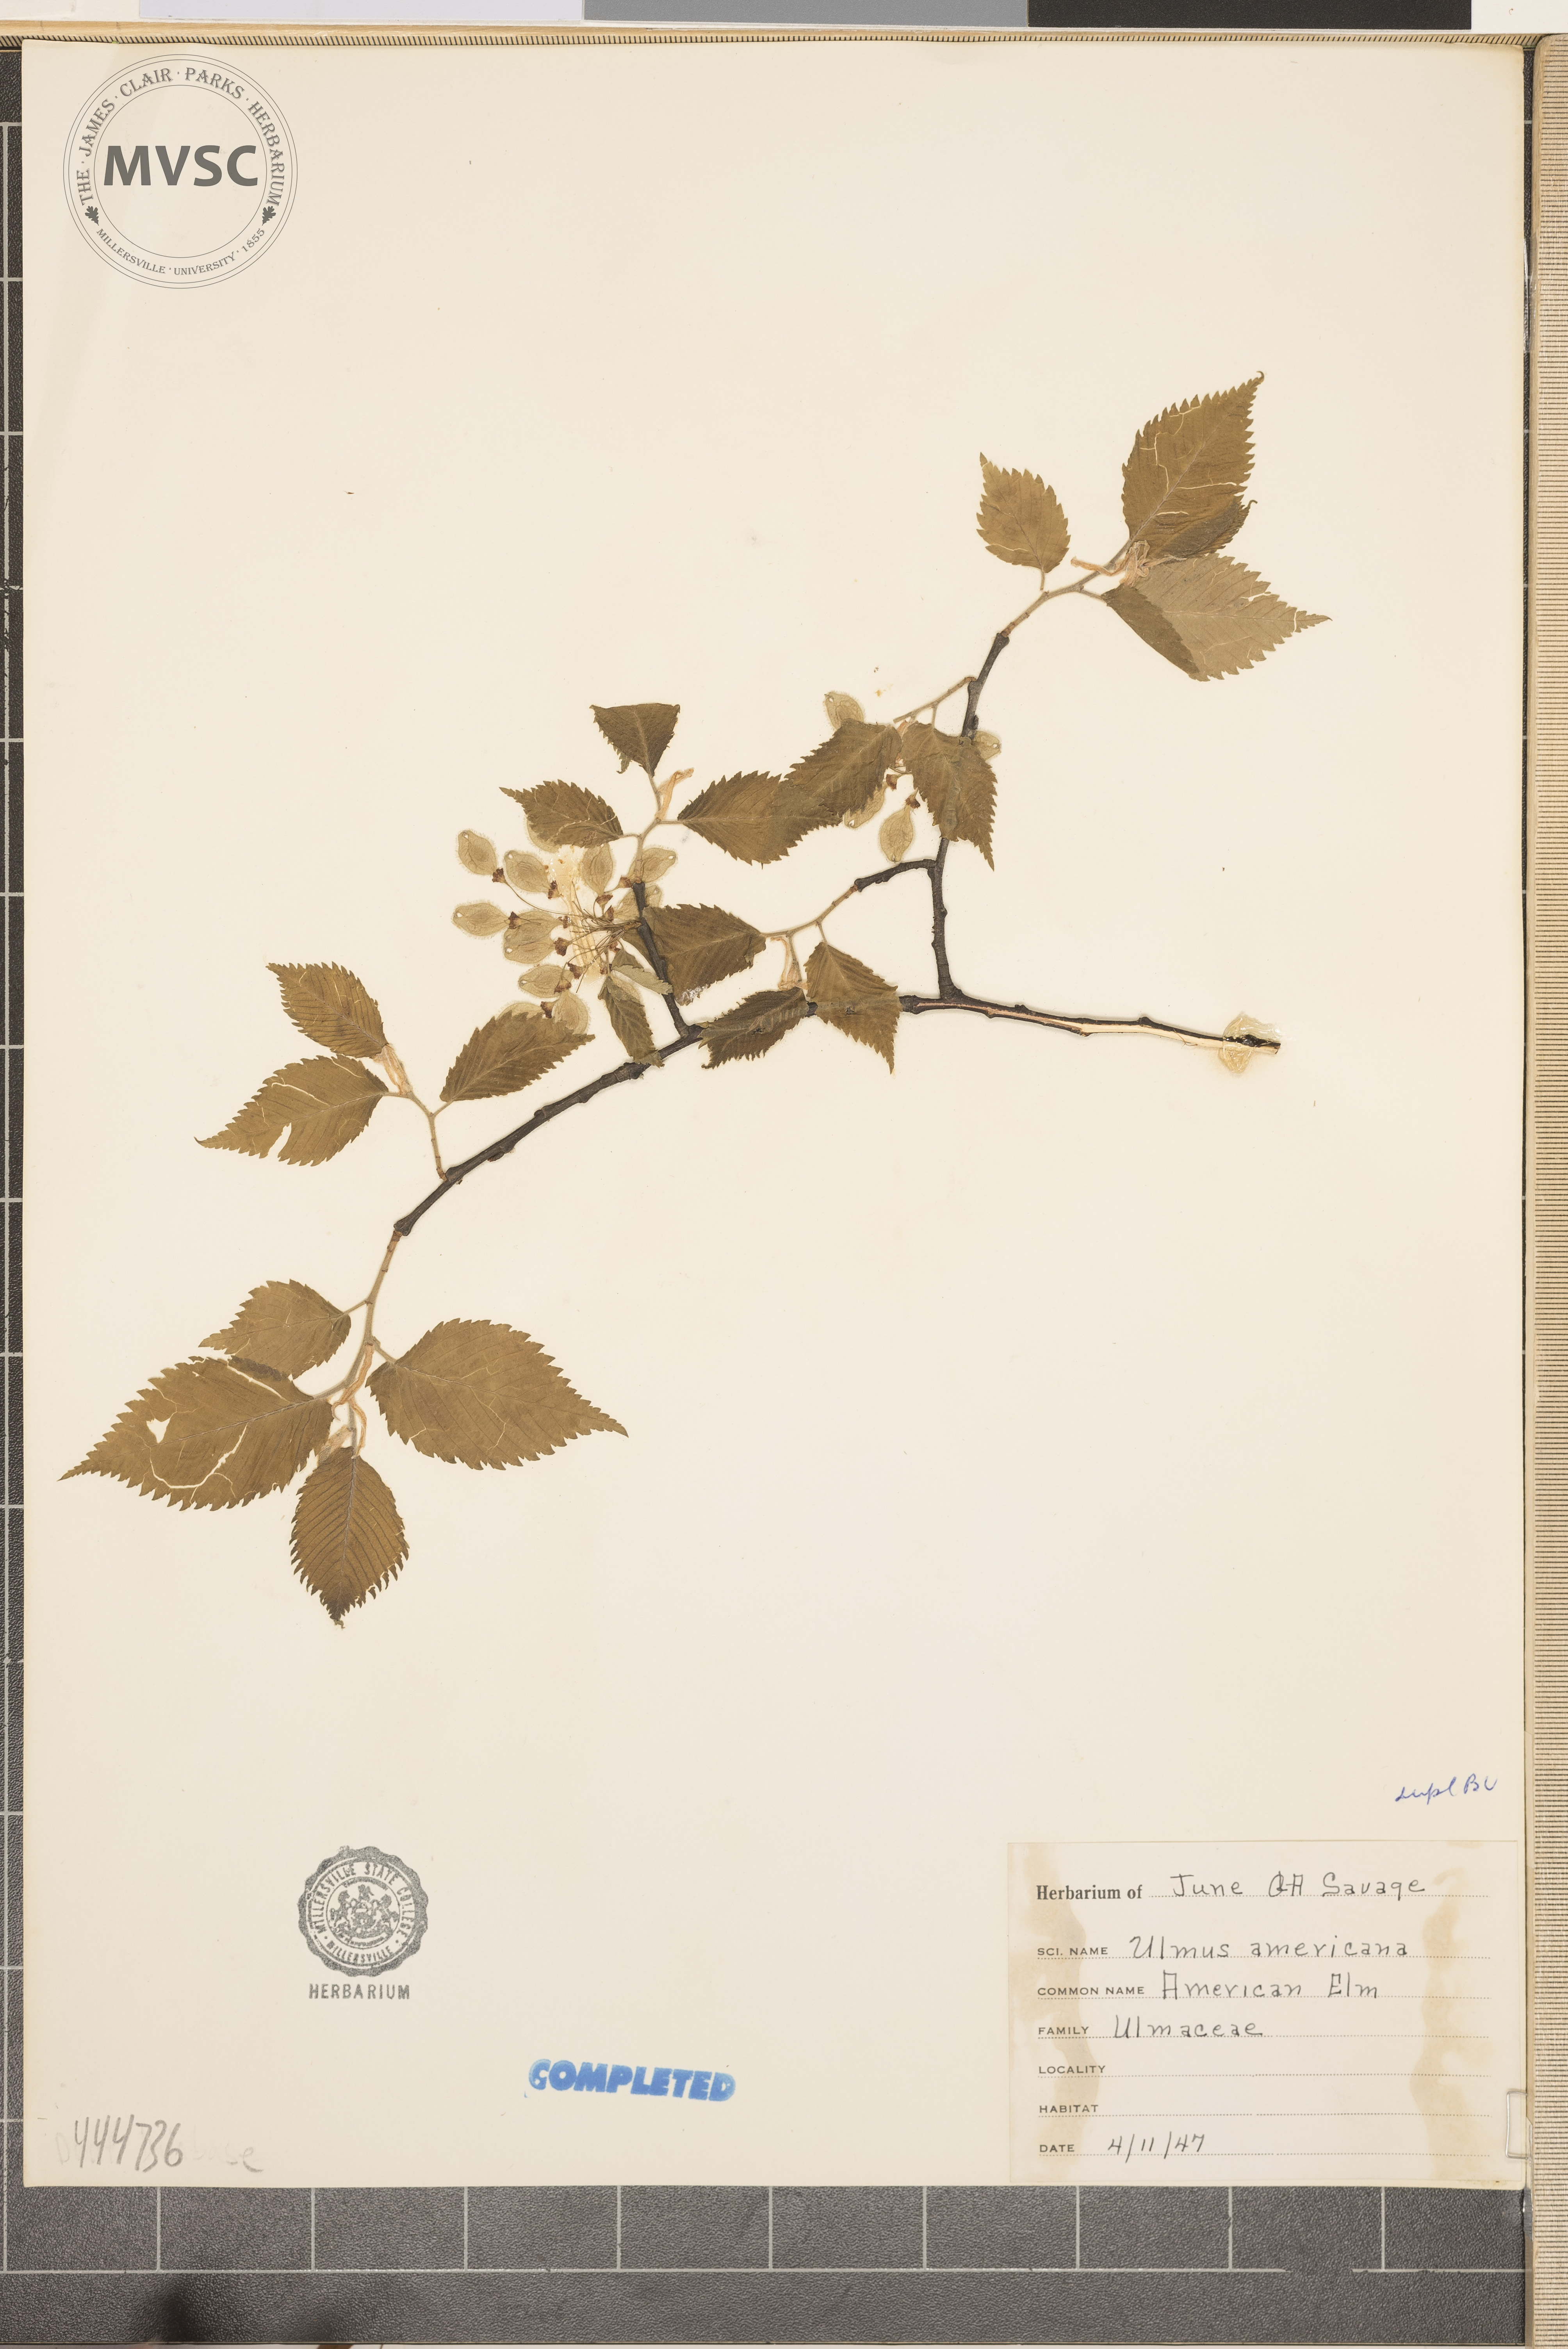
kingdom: Plantae
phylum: Tracheophyta
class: Magnoliopsida
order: Rosales
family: Ulmaceae
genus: Ulmus
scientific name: Ulmus americana
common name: American Elm
